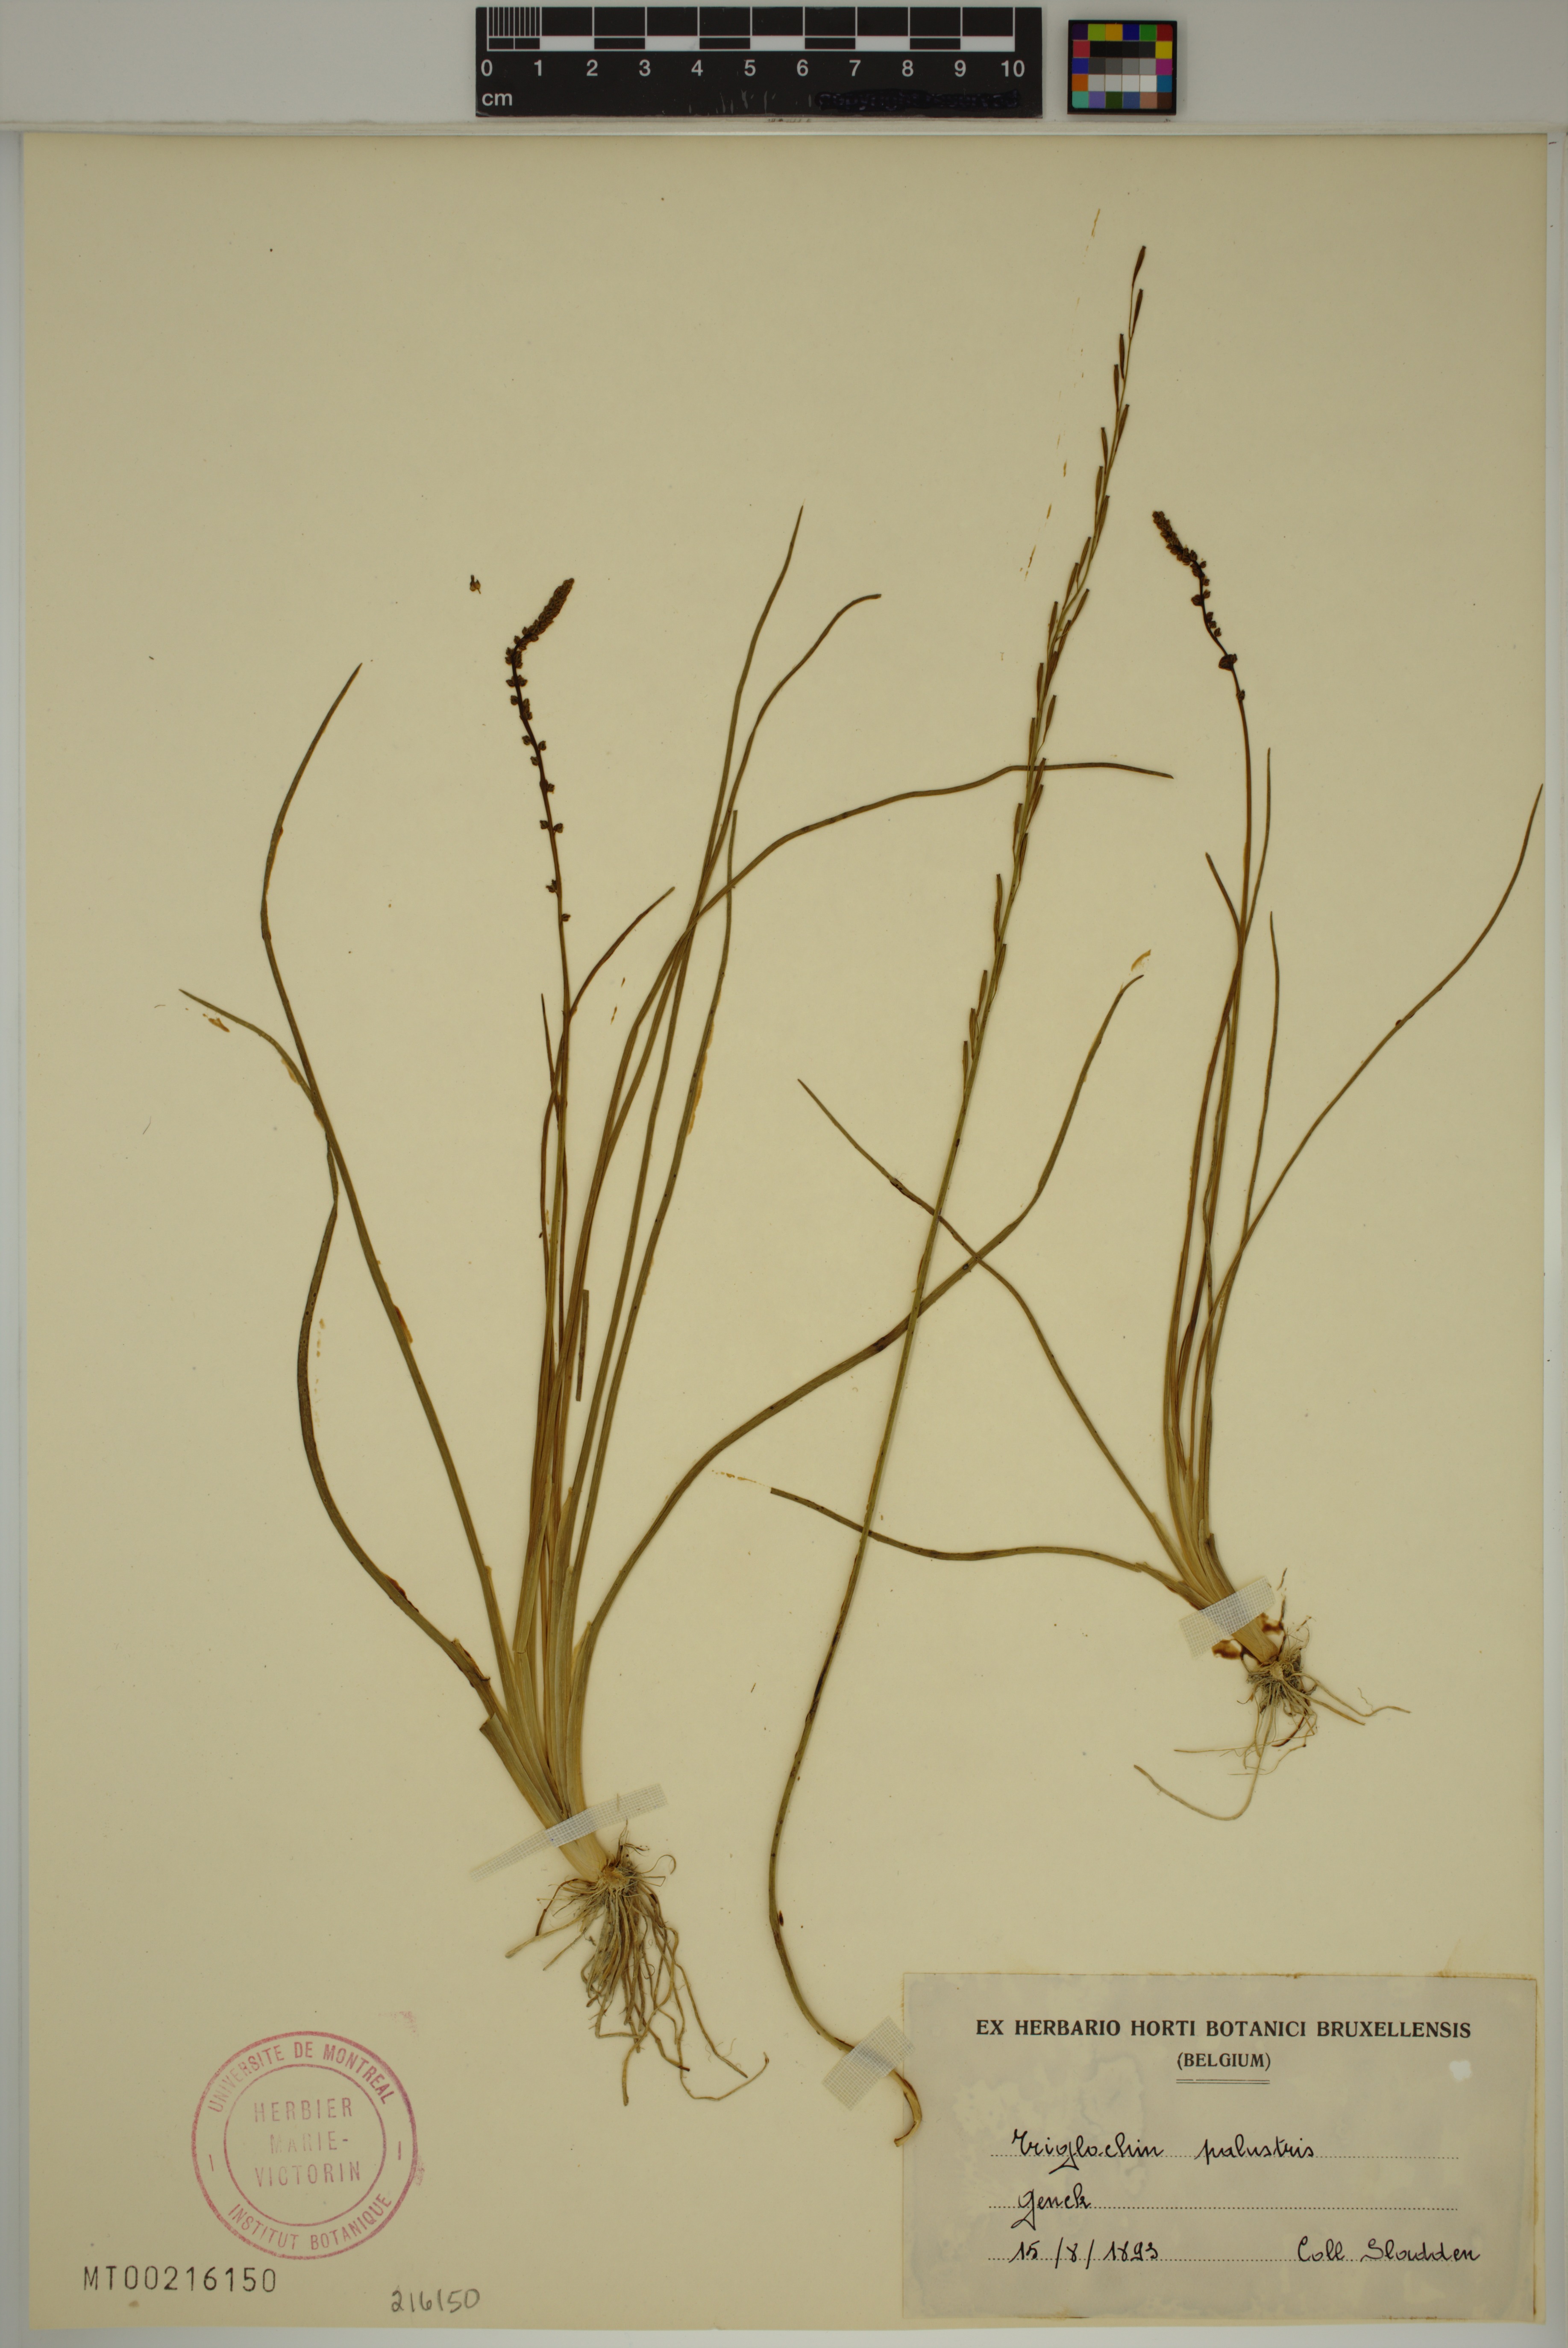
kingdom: Plantae
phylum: Tracheophyta
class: Liliopsida
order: Alismatales
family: Juncaginaceae
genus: Triglochin
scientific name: Triglochin palustris
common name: Marsh arrowgrass
